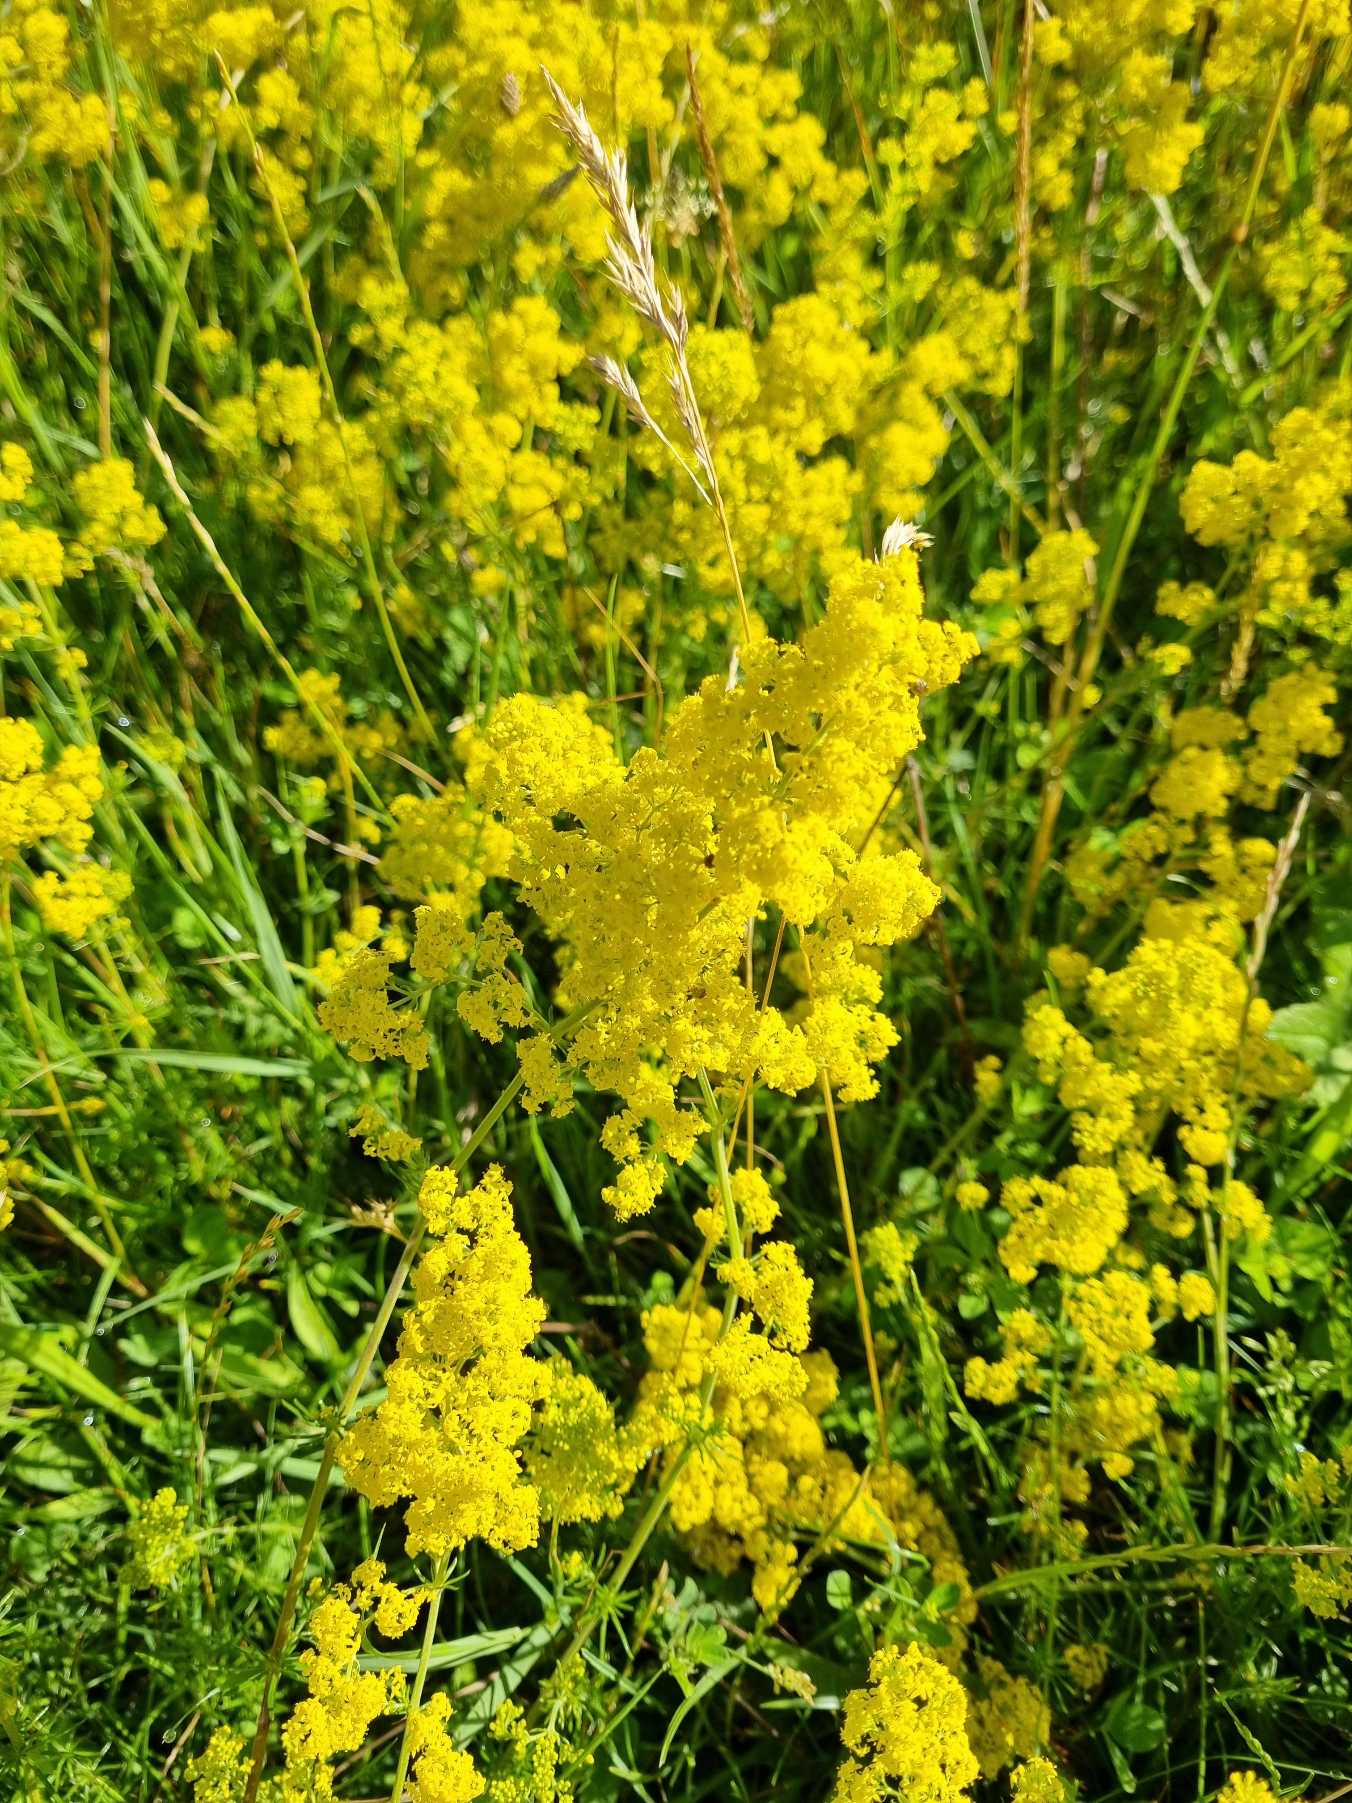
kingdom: Plantae
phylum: Tracheophyta
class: Magnoliopsida
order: Gentianales
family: Rubiaceae
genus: Galium
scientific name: Galium verum
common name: Gul snerre
